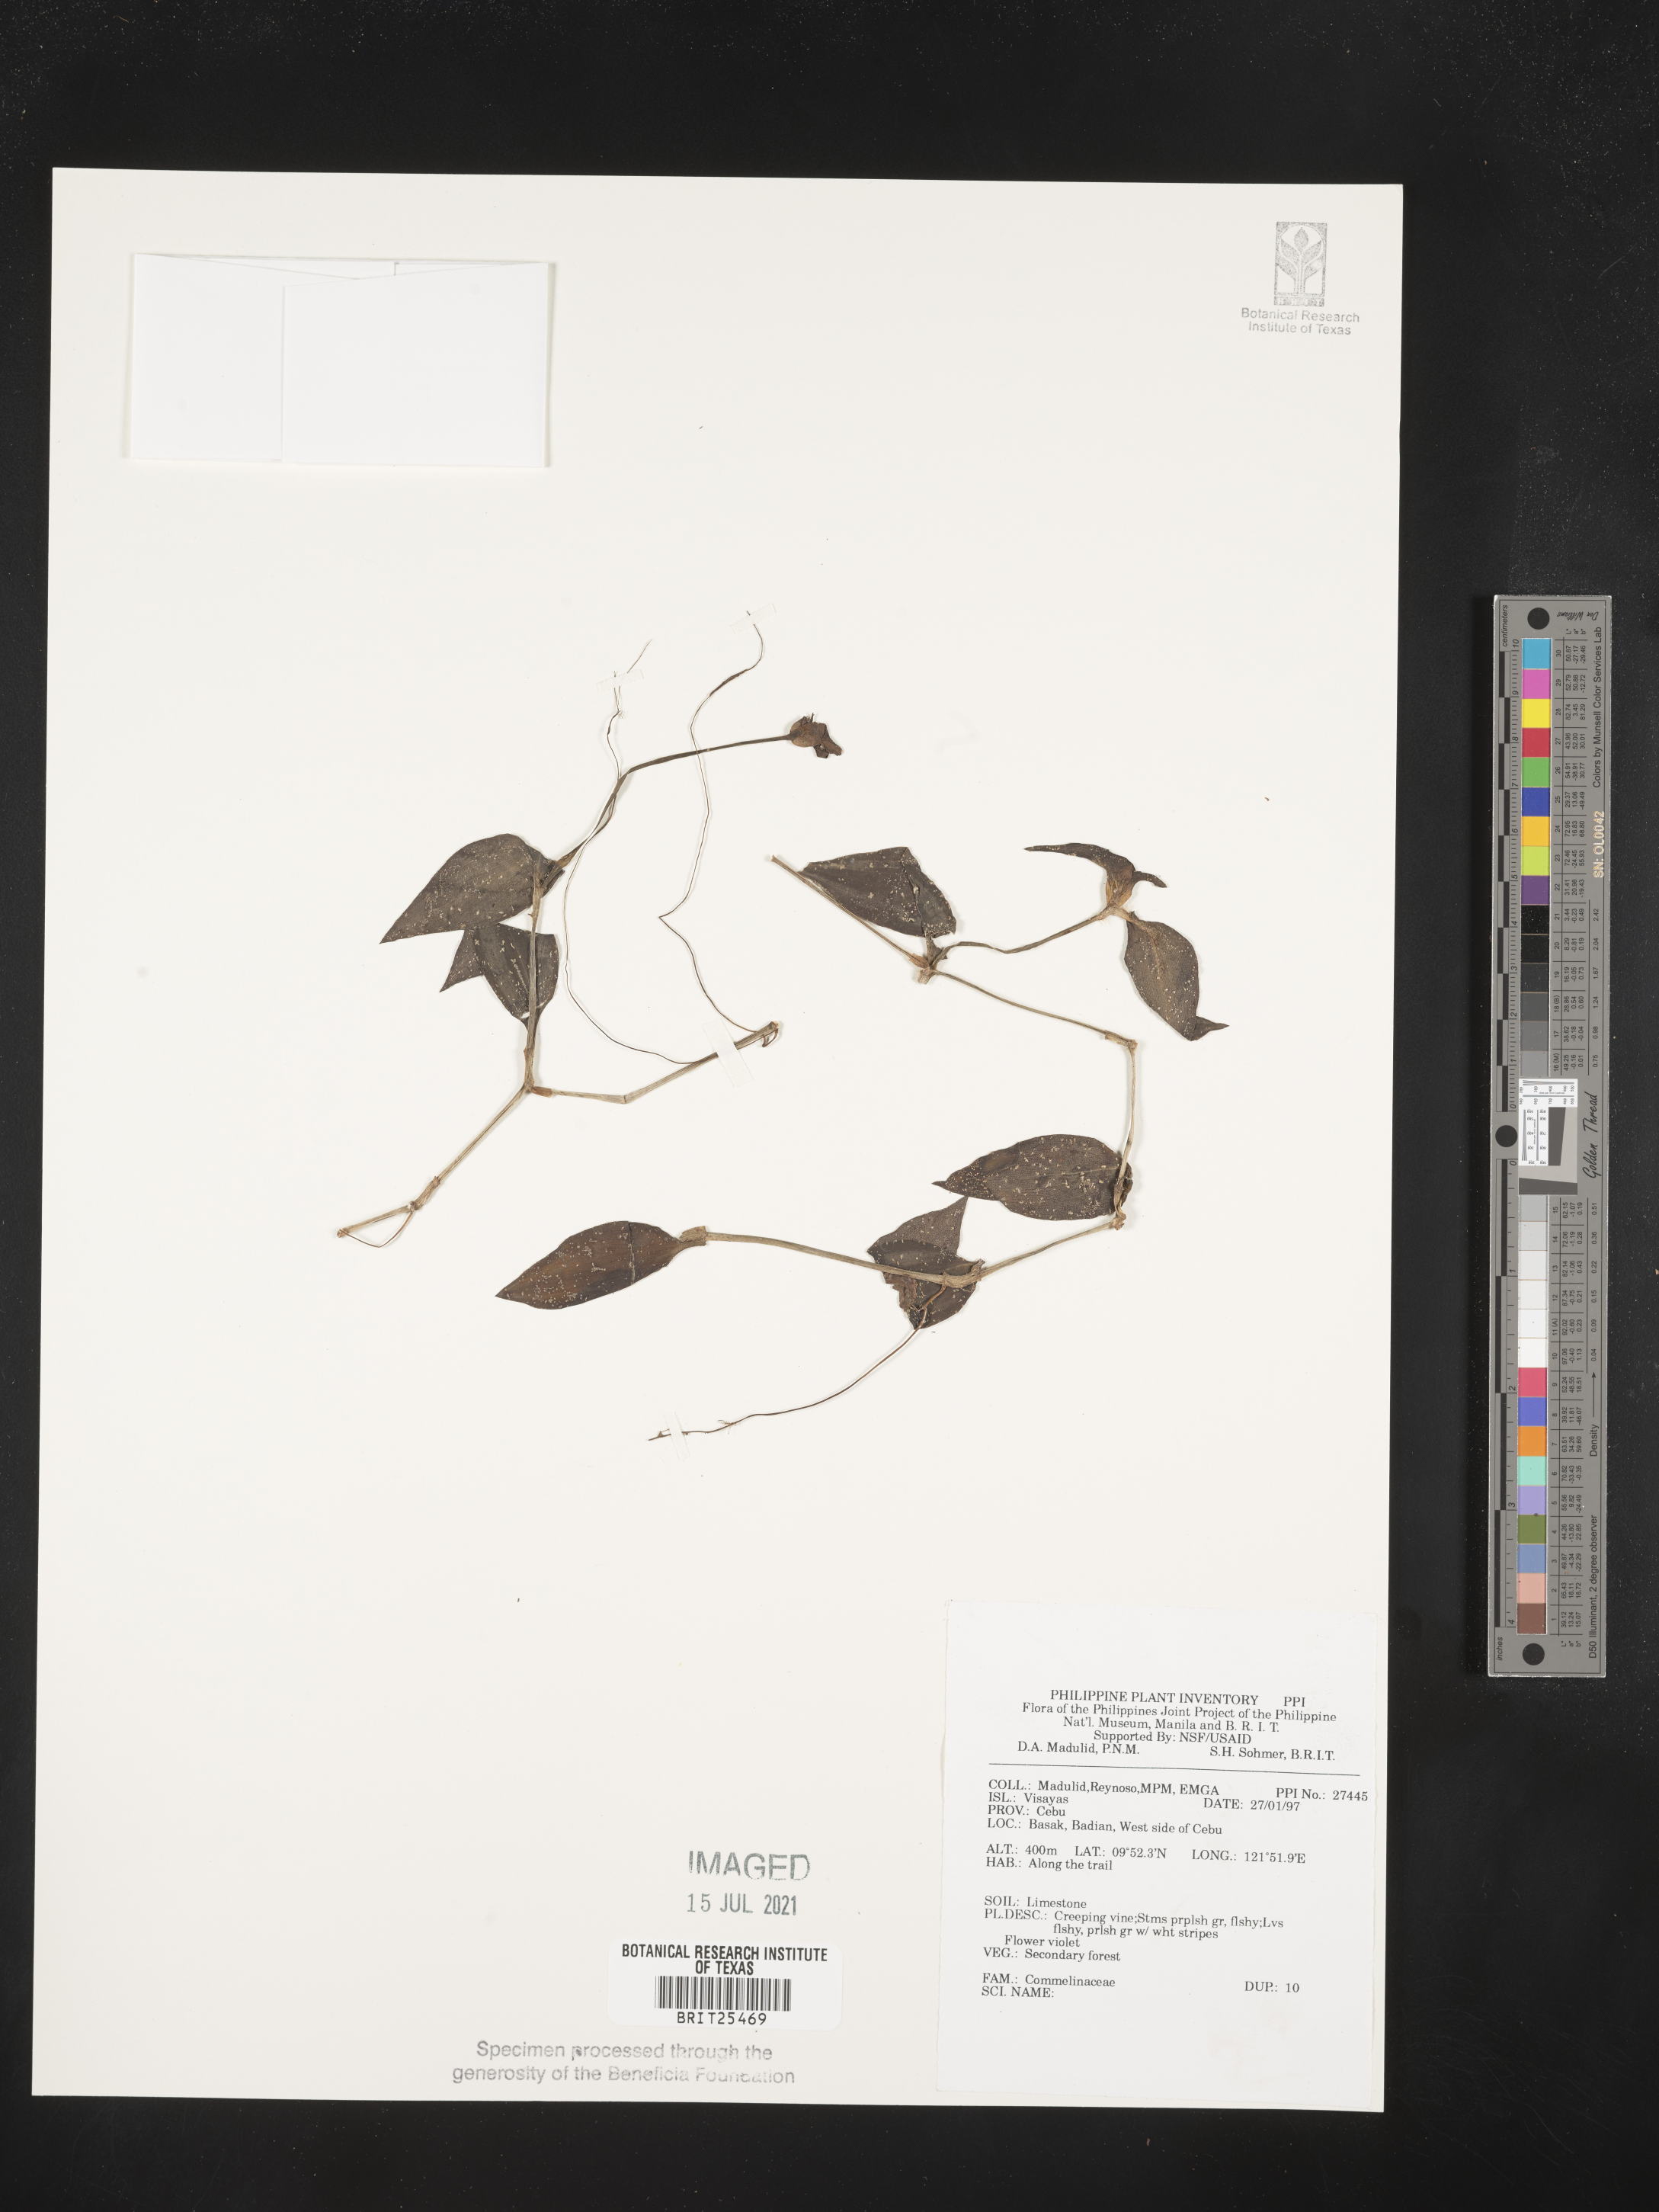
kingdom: Plantae
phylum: Tracheophyta
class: Liliopsida
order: Commelinales
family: Commelinaceae
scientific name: Commelinaceae
